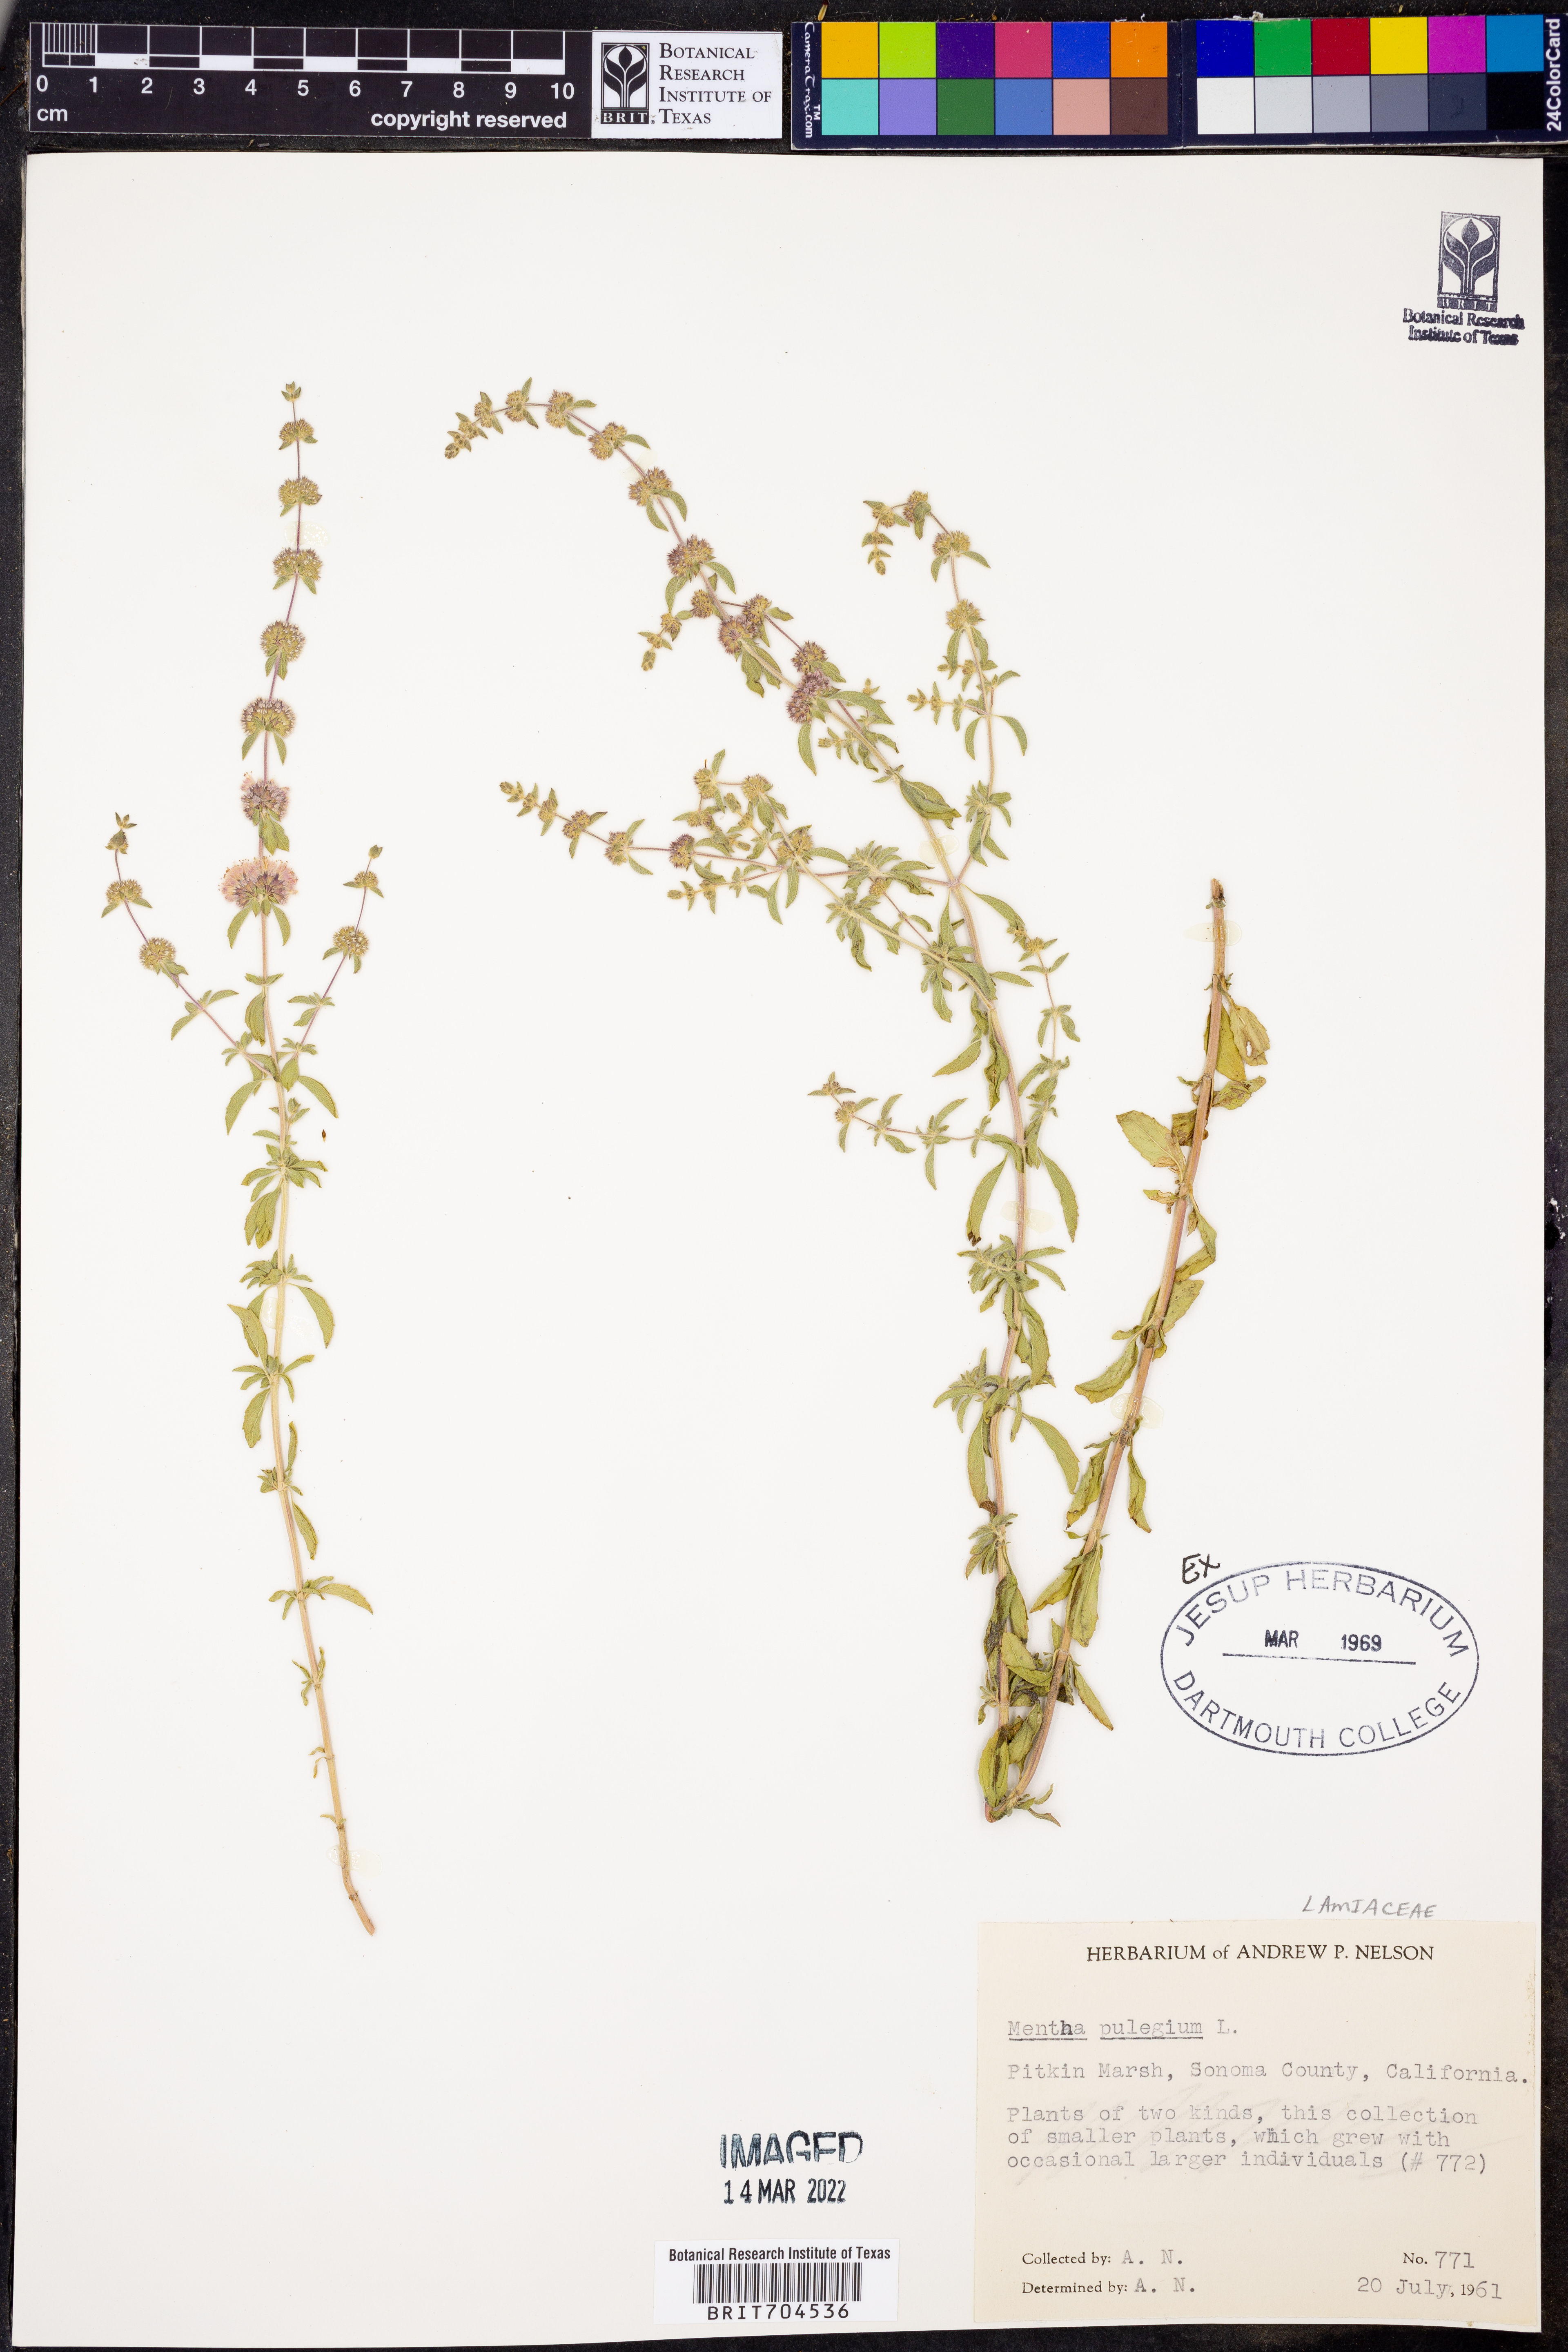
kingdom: Plantae
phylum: Tracheophyta
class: Magnoliopsida
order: Lamiales
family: Lamiaceae
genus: Mentha
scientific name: Mentha
